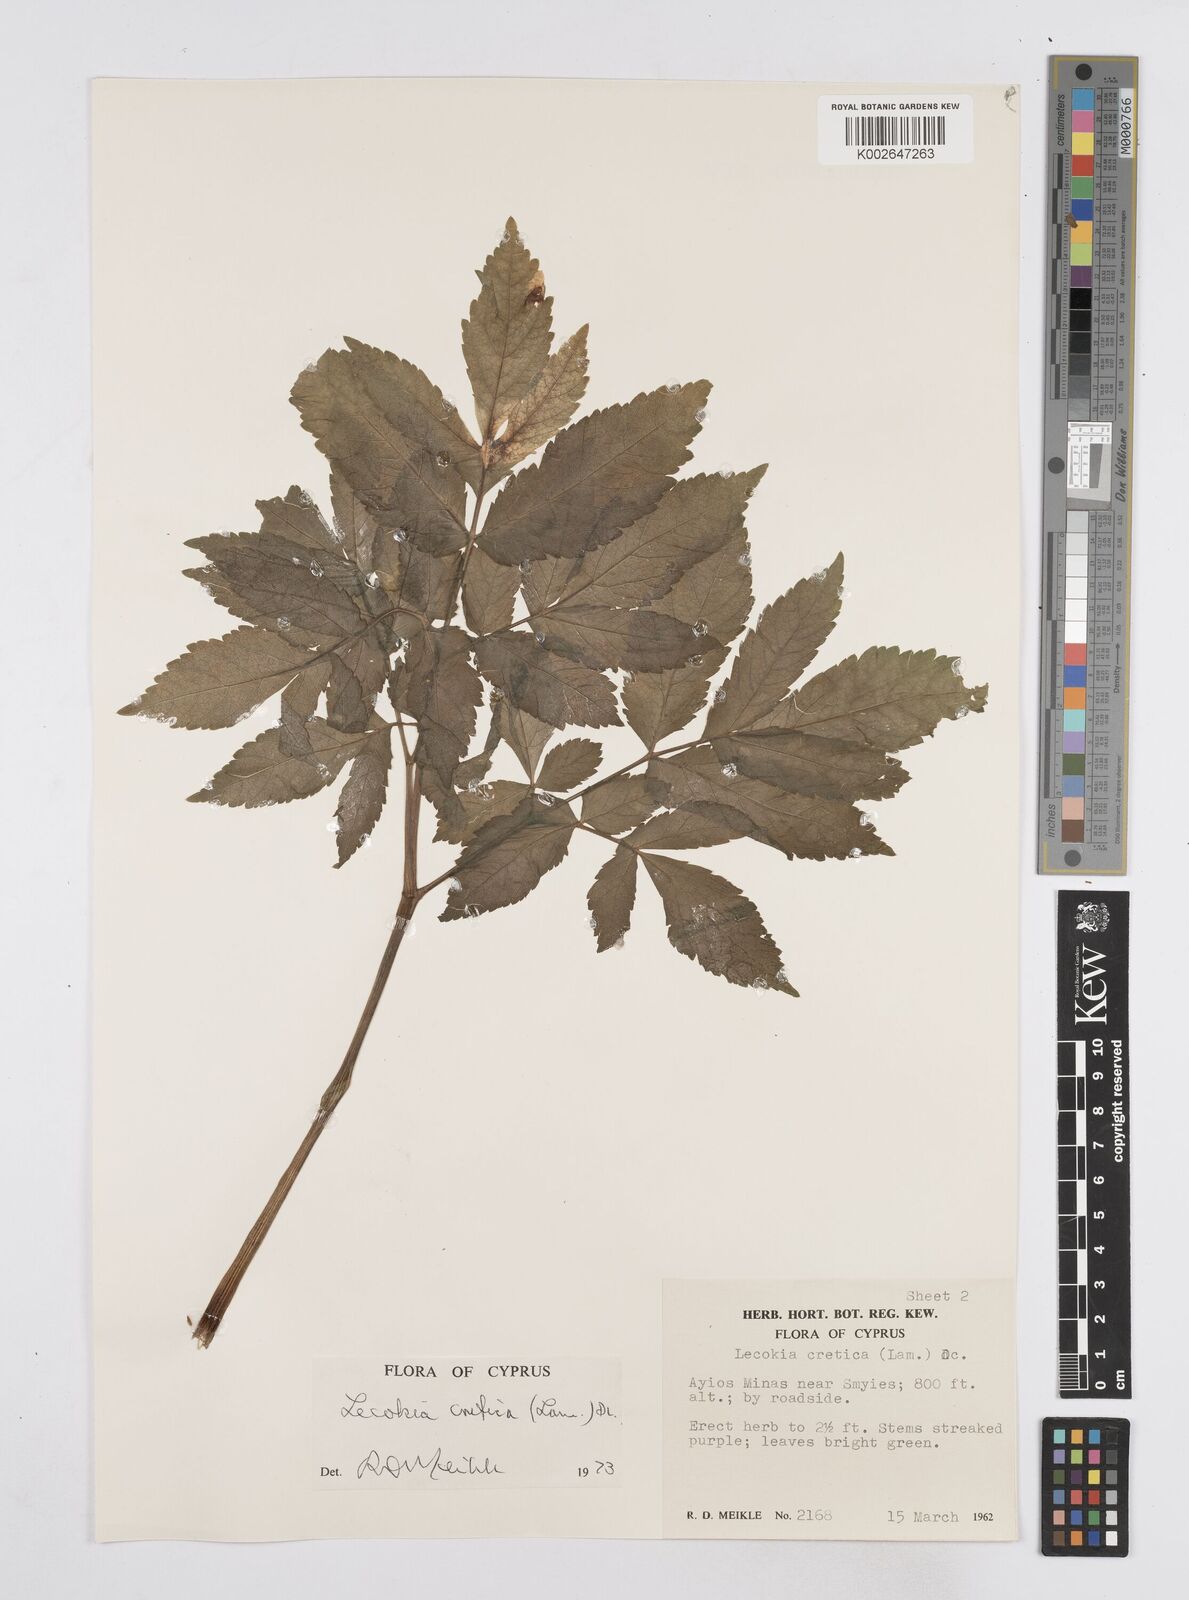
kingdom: Plantae
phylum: Tracheophyta
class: Magnoliopsida
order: Apiales
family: Apiaceae
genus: Lecokia
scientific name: Lecokia cretica
